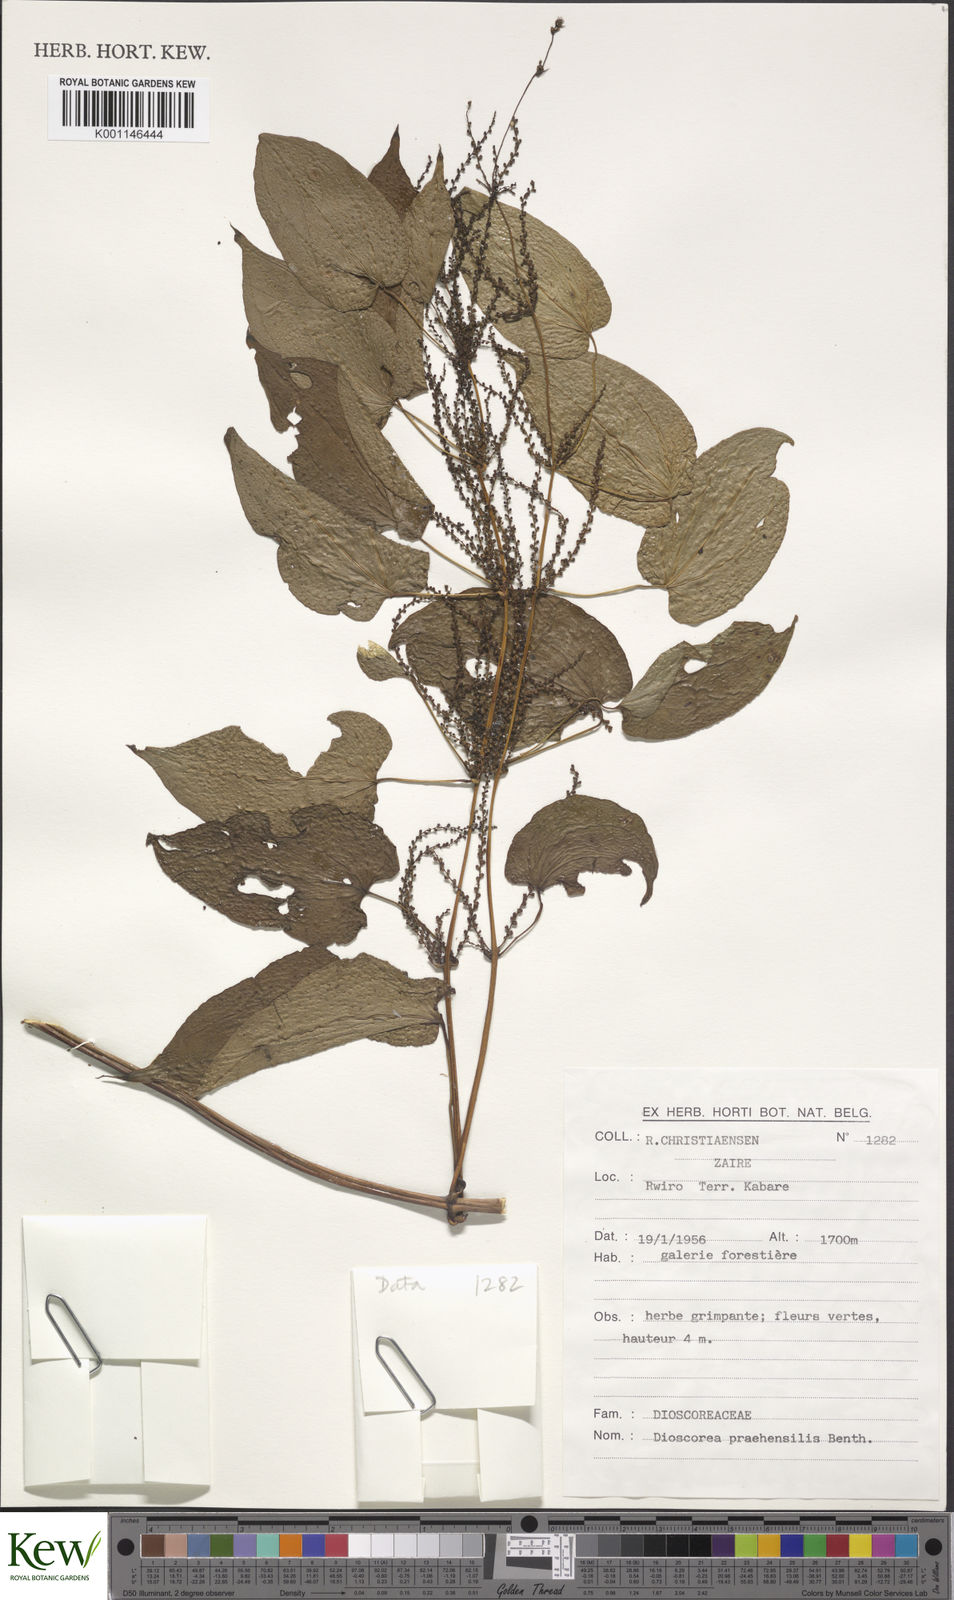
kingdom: Plantae
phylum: Tracheophyta
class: Liliopsida
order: Dioscoreales
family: Dioscoreaceae
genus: Dioscorea
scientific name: Dioscorea praehensilis
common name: Bush yam
